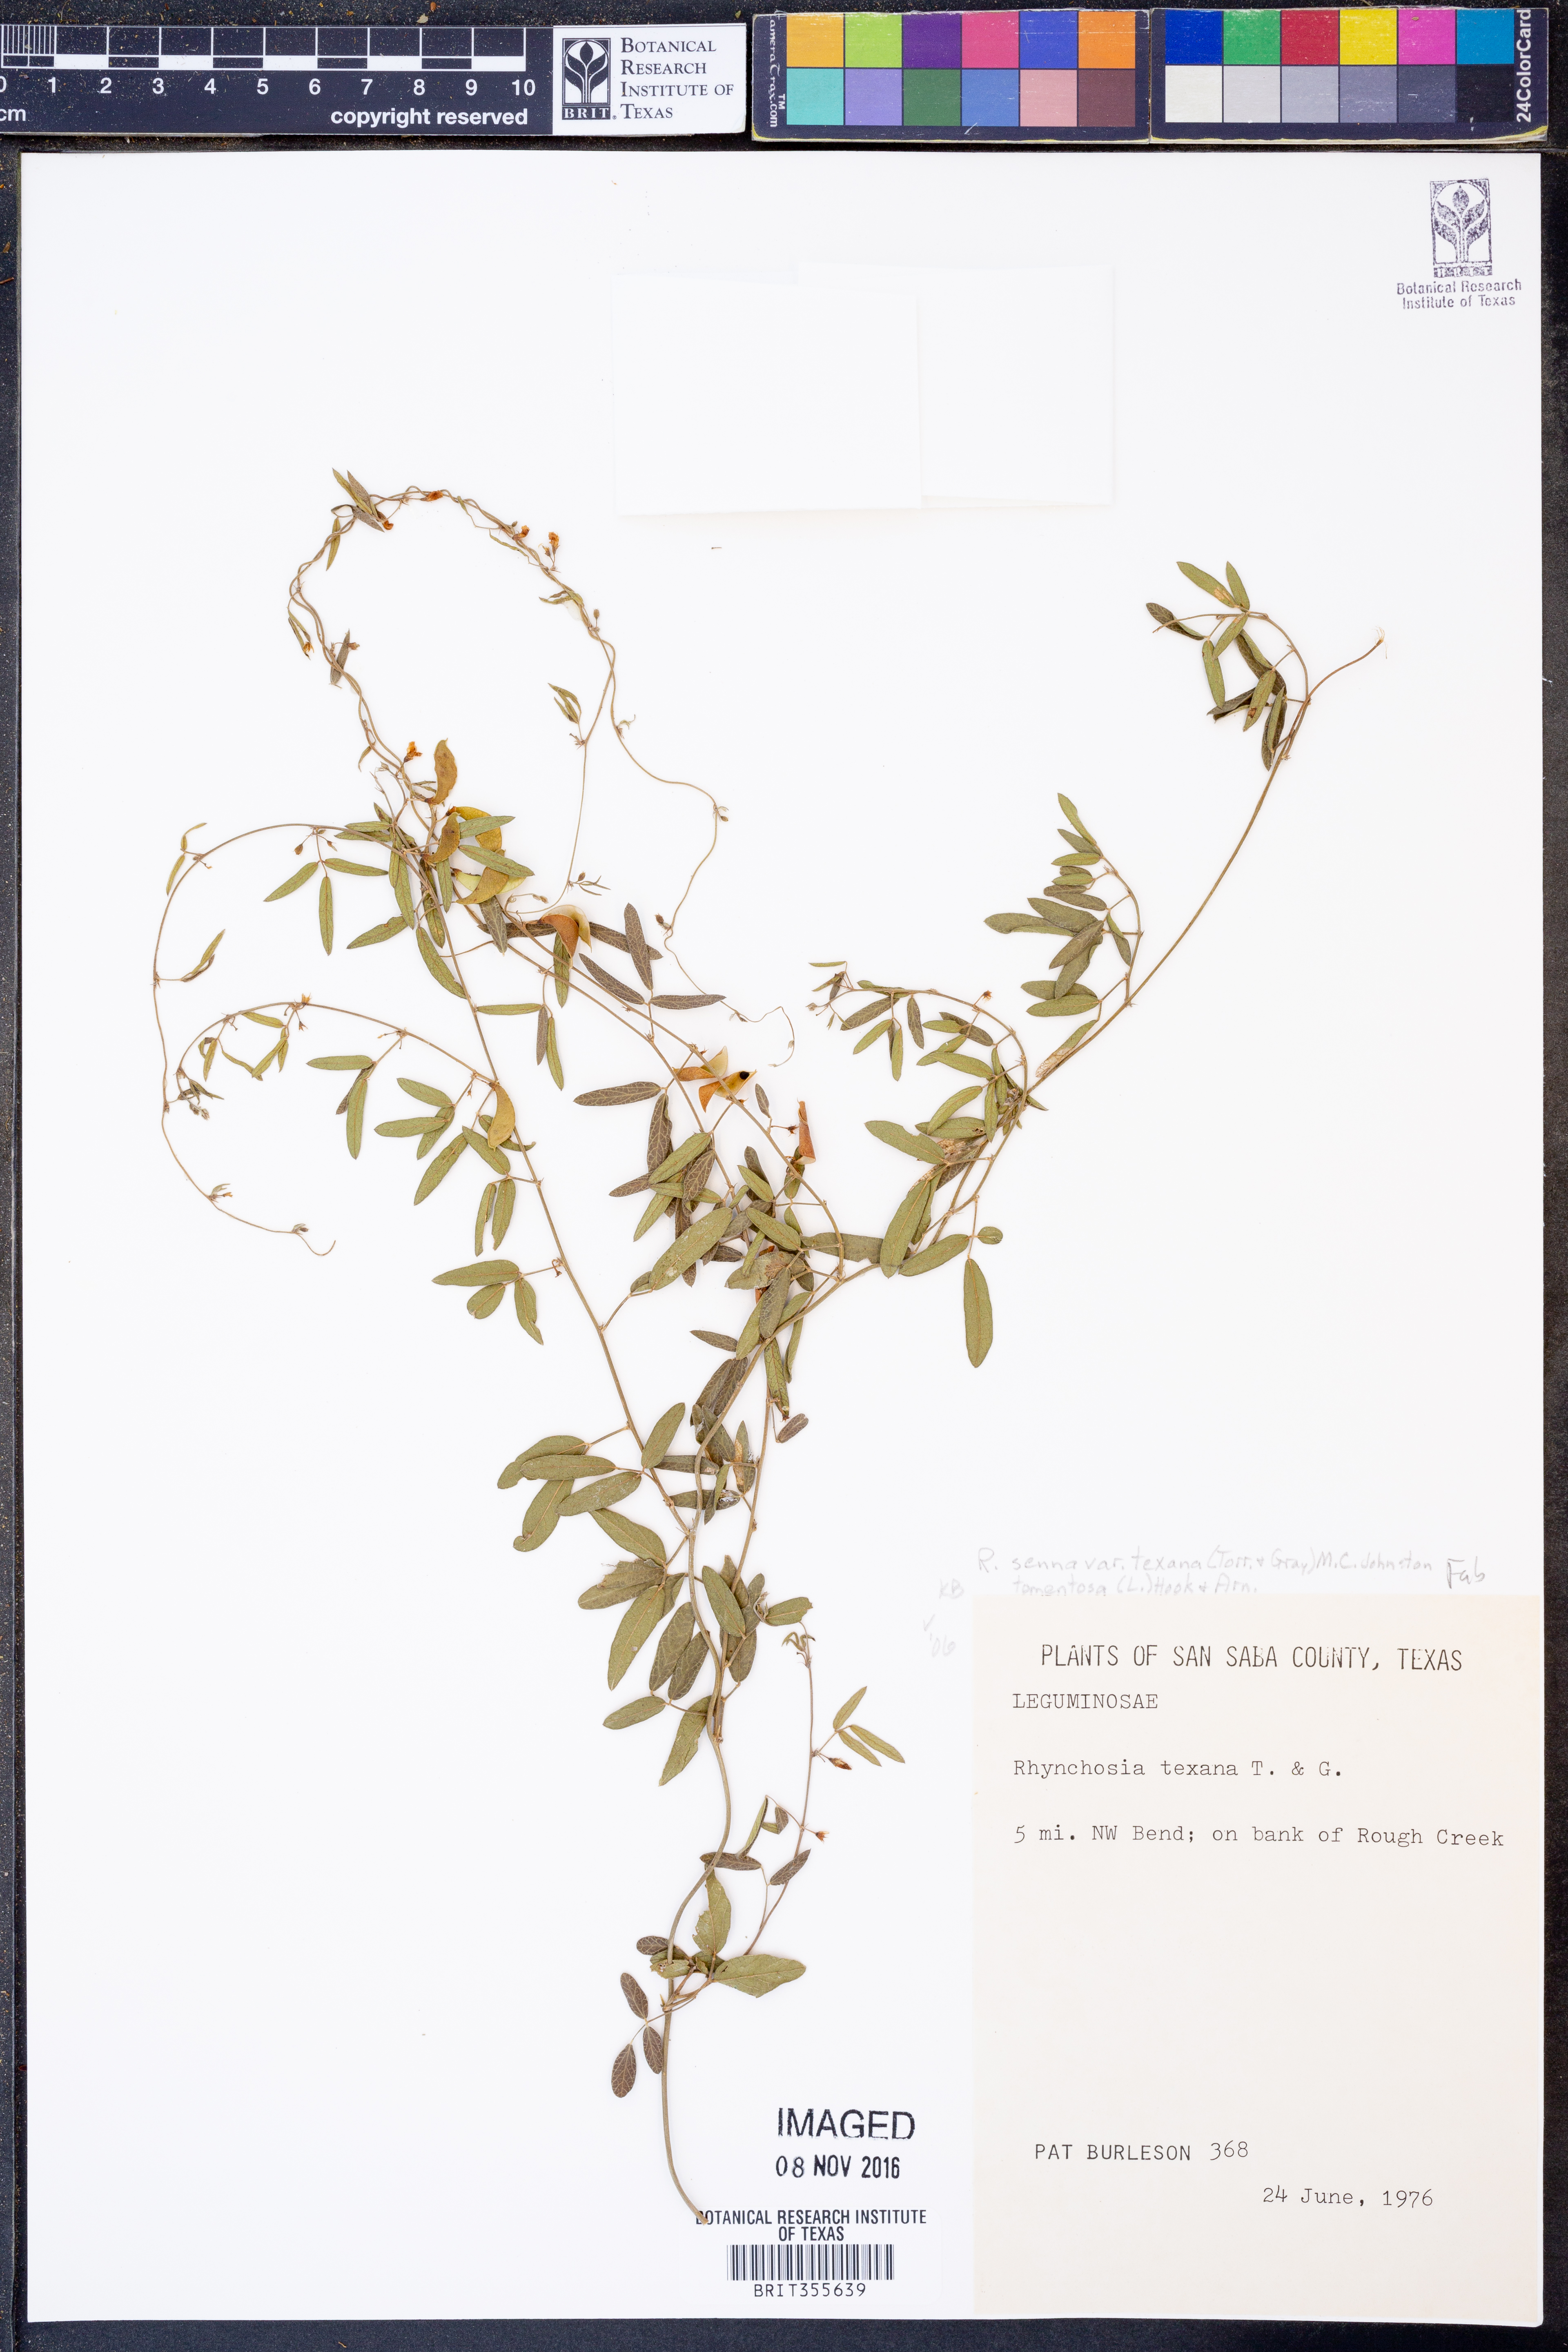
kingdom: Plantae
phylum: Tracheophyta
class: Magnoliopsida
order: Fabales
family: Fabaceae
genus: Rhynchosia
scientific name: Rhynchosia senna
